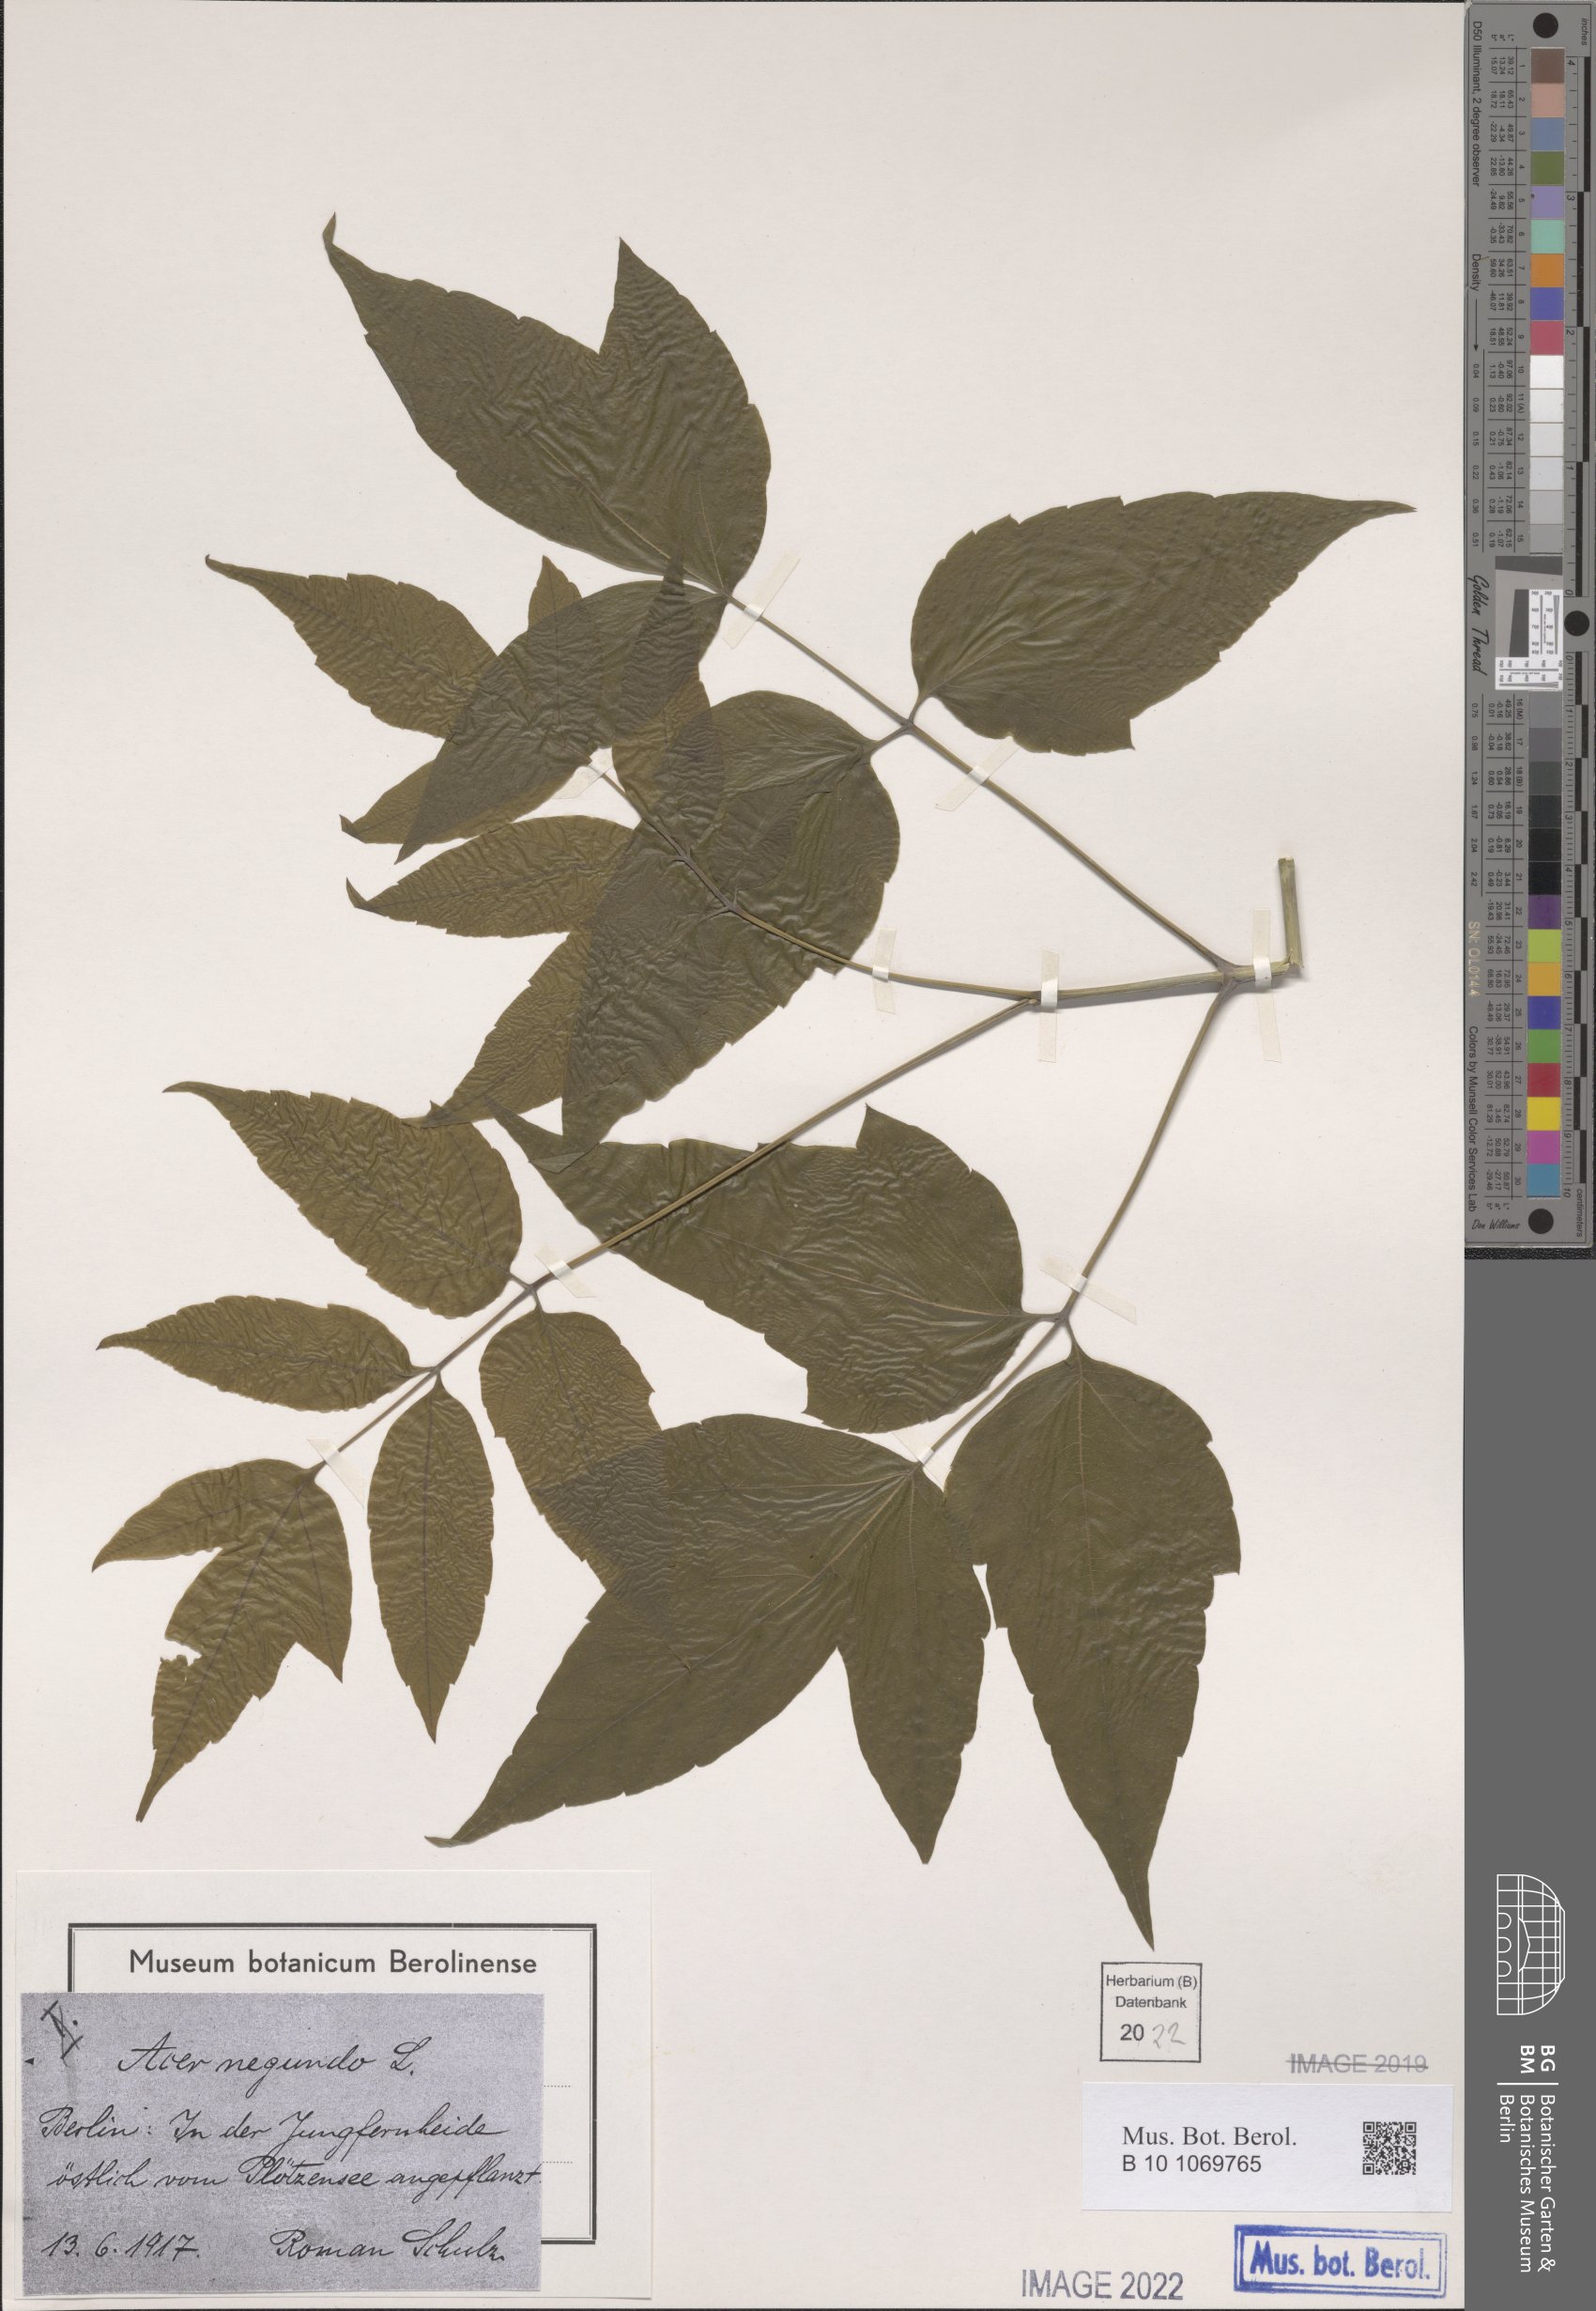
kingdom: Plantae
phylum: Tracheophyta
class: Magnoliopsida
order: Sapindales
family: Sapindaceae
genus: Acer
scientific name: Acer negundo
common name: Ashleaf maple
